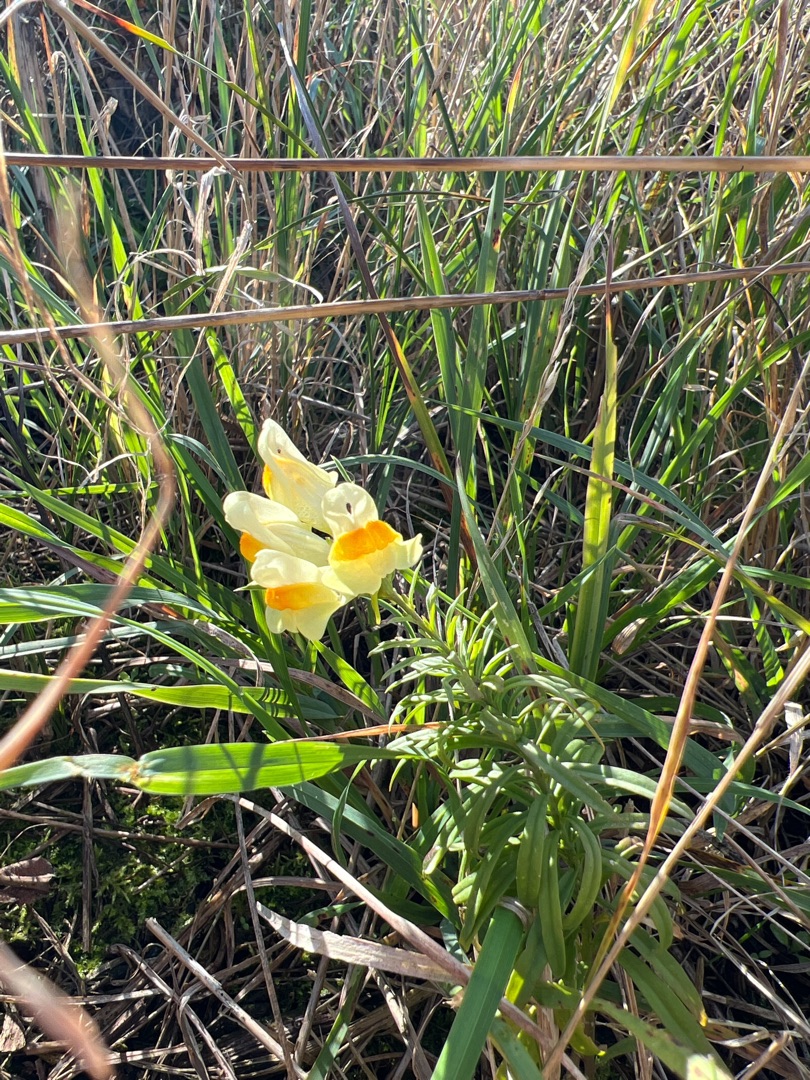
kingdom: Plantae
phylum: Tracheophyta
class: Magnoliopsida
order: Lamiales
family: Plantaginaceae
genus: Linaria
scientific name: Linaria vulgaris
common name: Almindelig torskemund
